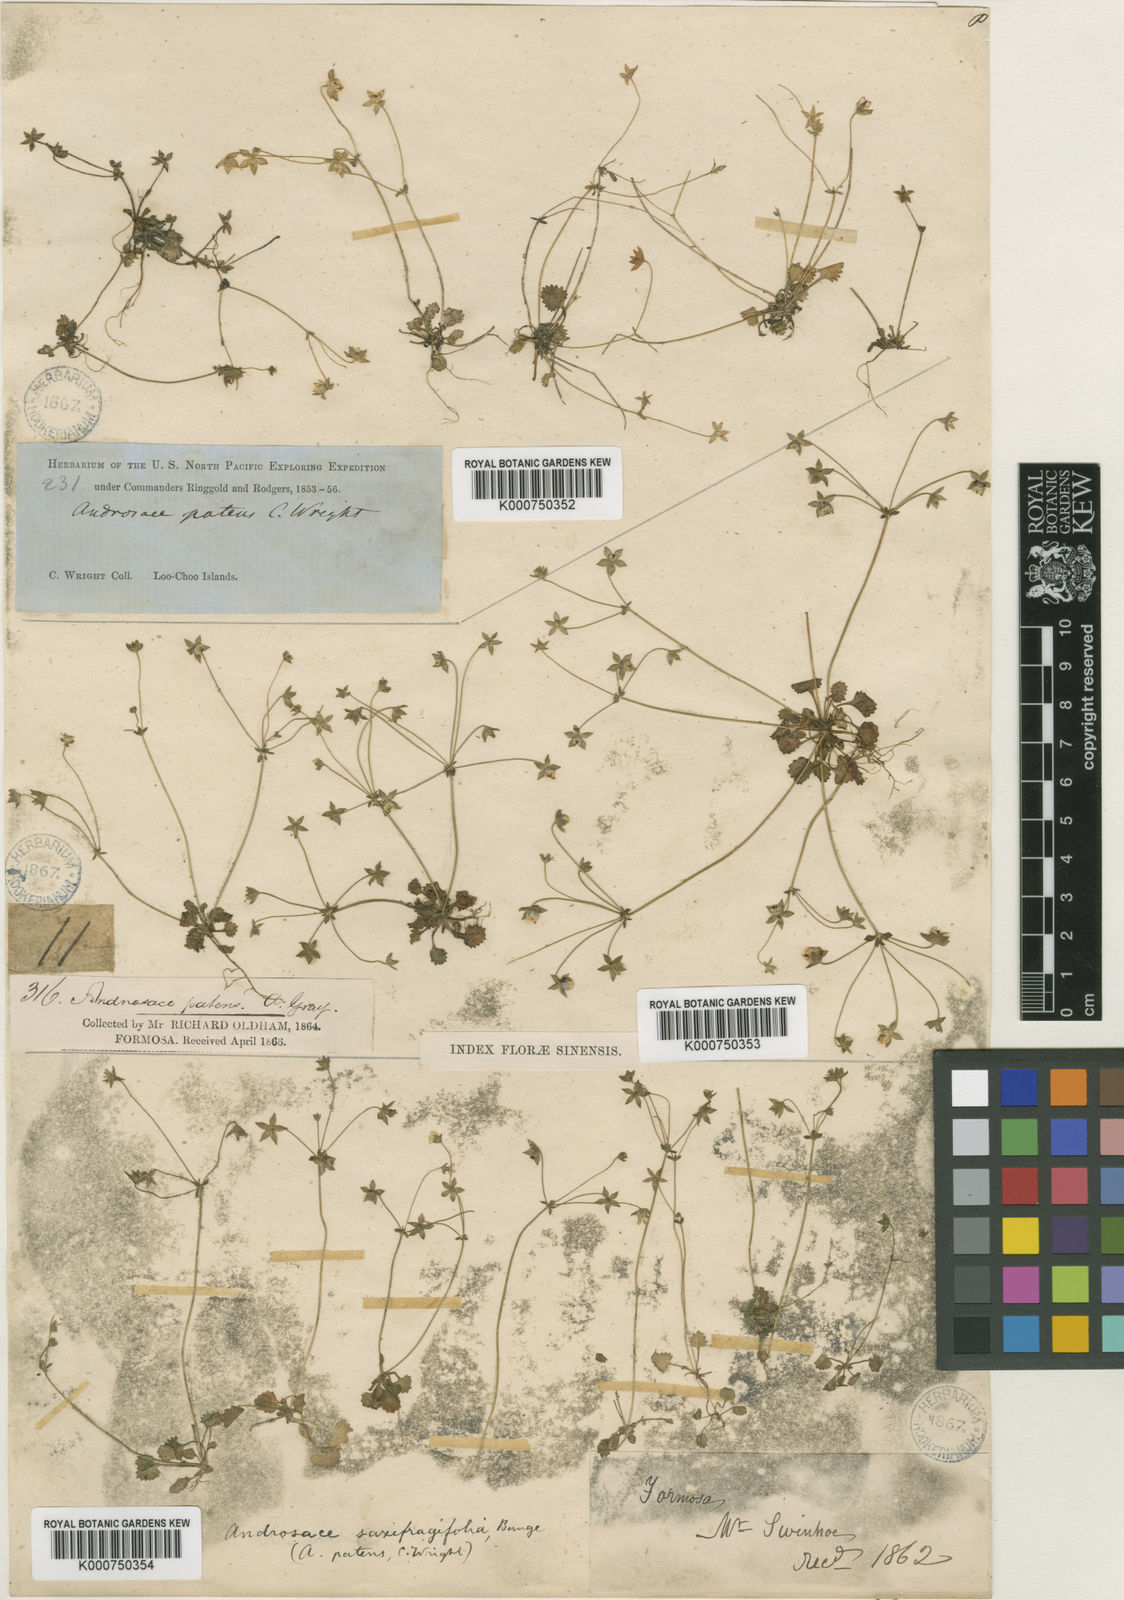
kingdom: Plantae
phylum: Tracheophyta
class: Magnoliopsida
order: Ericales
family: Primulaceae
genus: Androsace
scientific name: Androsace umbellata
